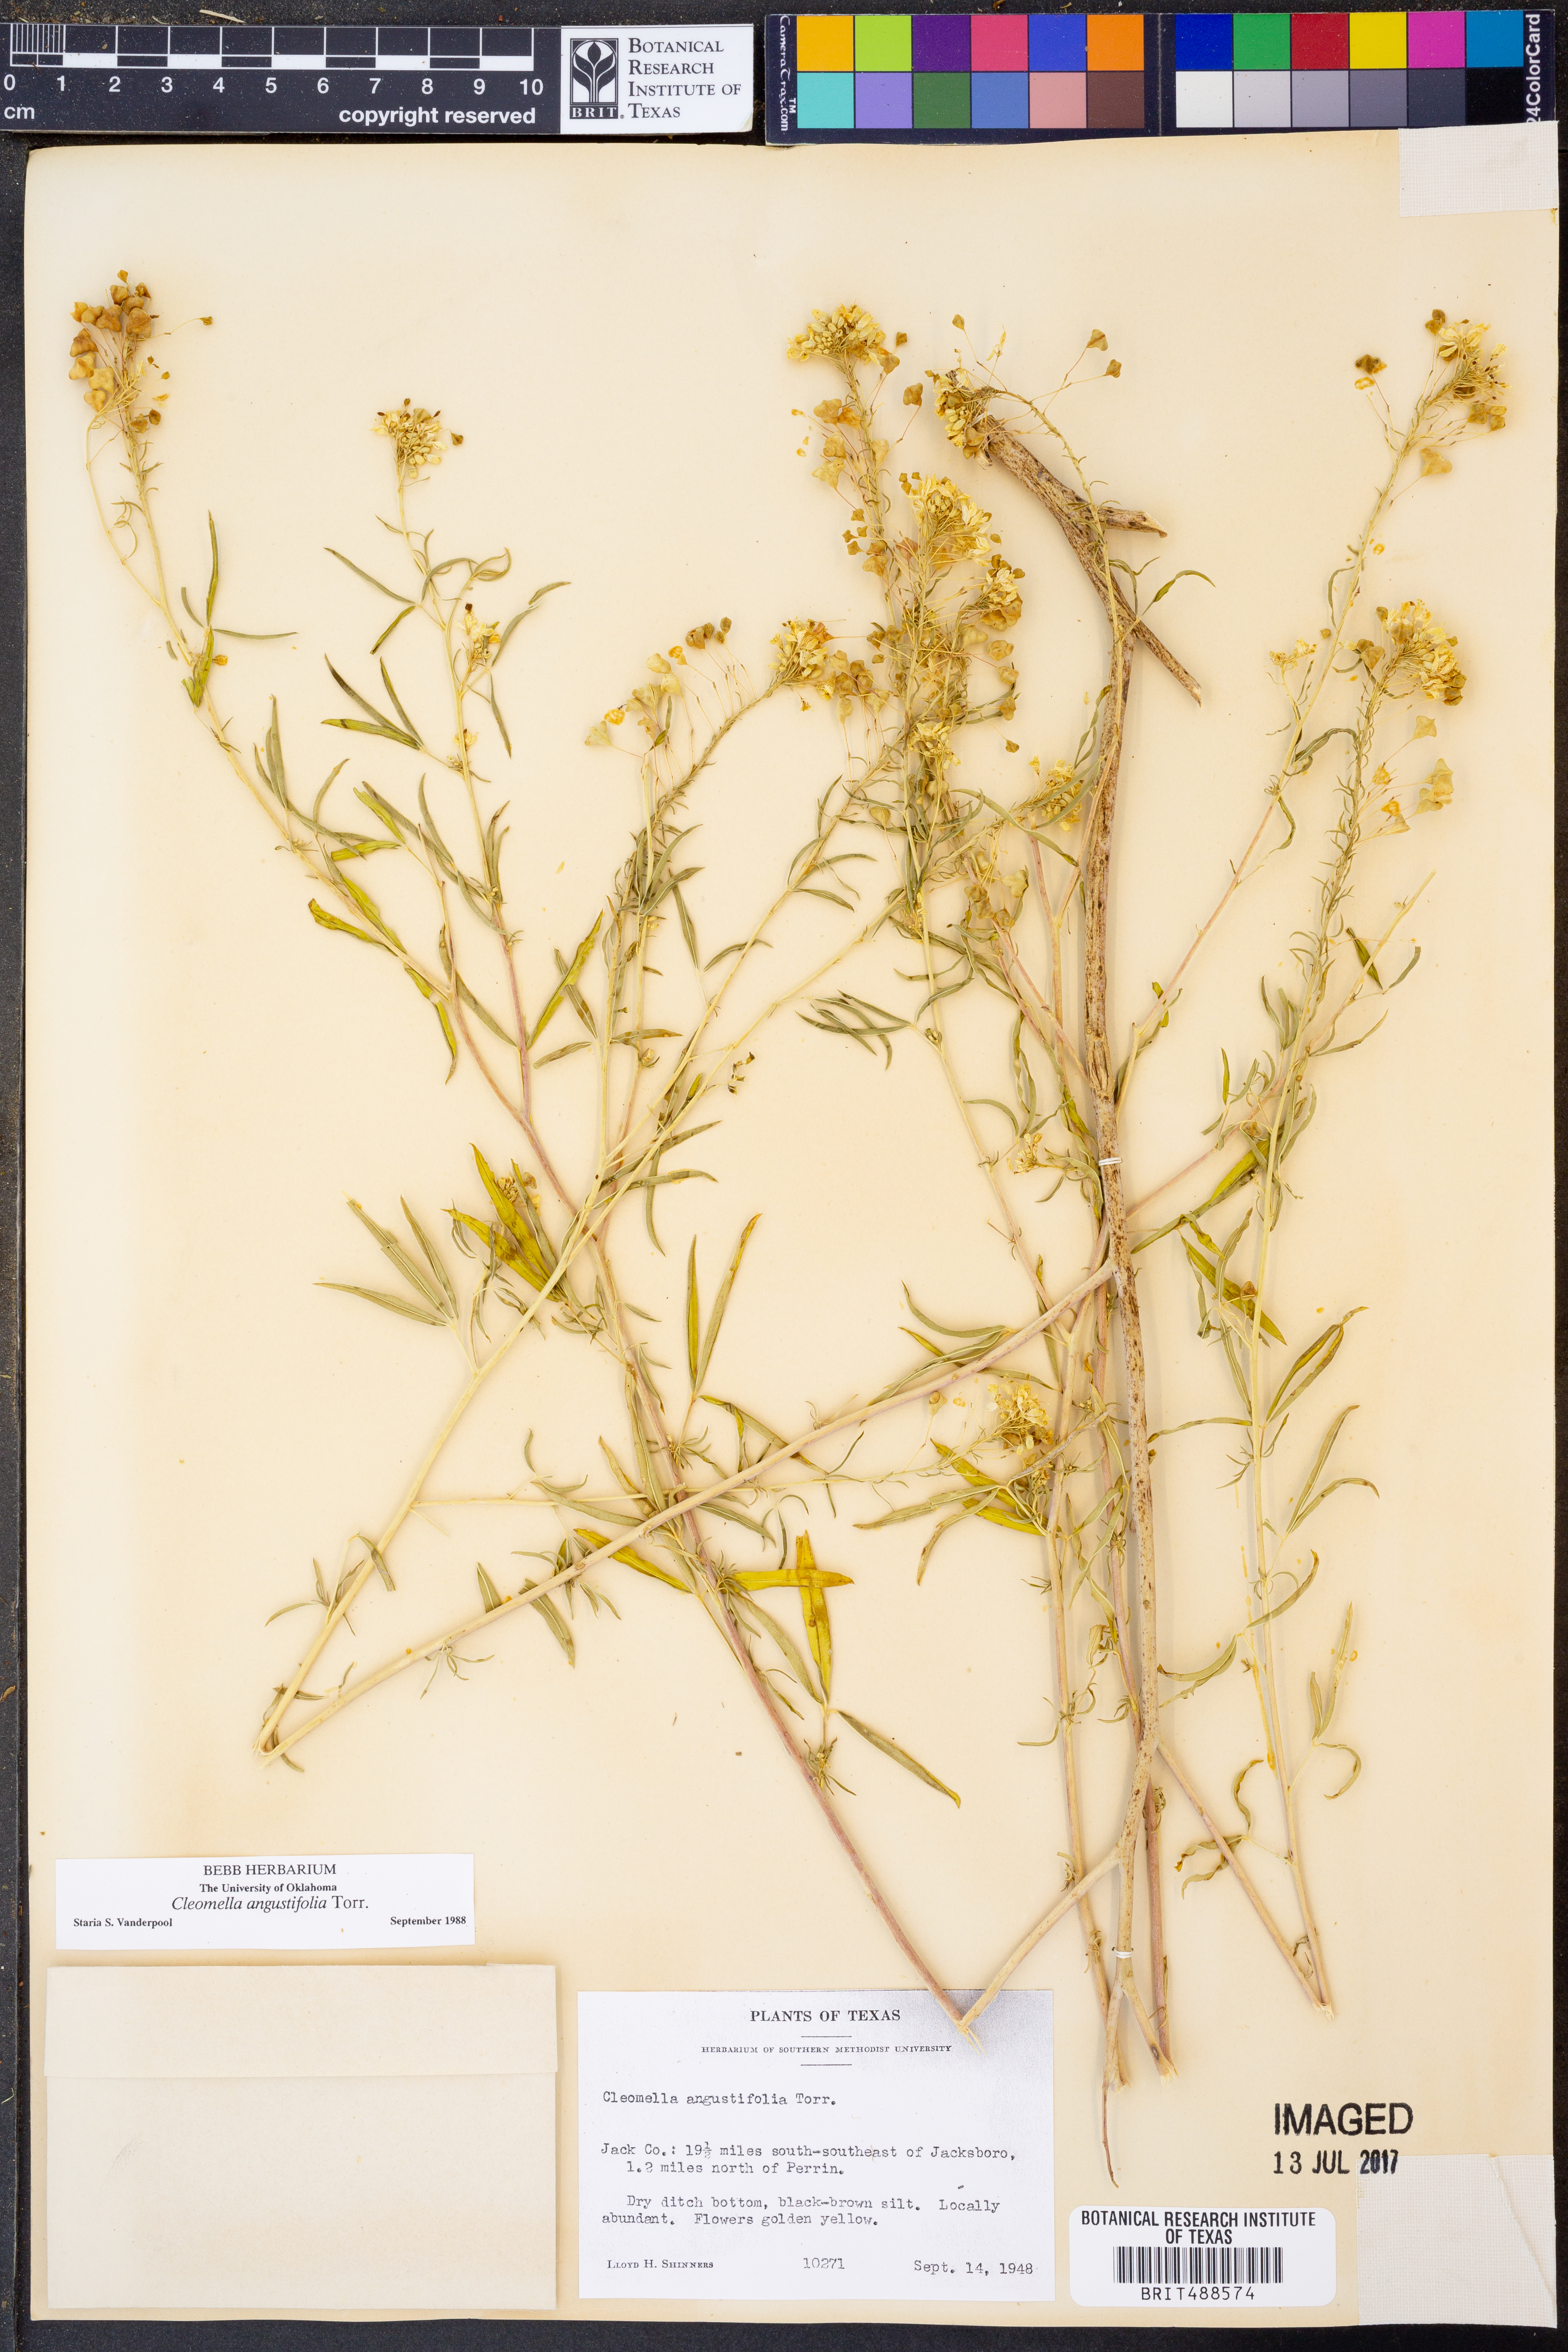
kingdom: Plantae
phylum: Tracheophyta
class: Magnoliopsida
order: Brassicales
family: Cleomaceae
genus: Cleomella
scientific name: Cleomella angustifolia
